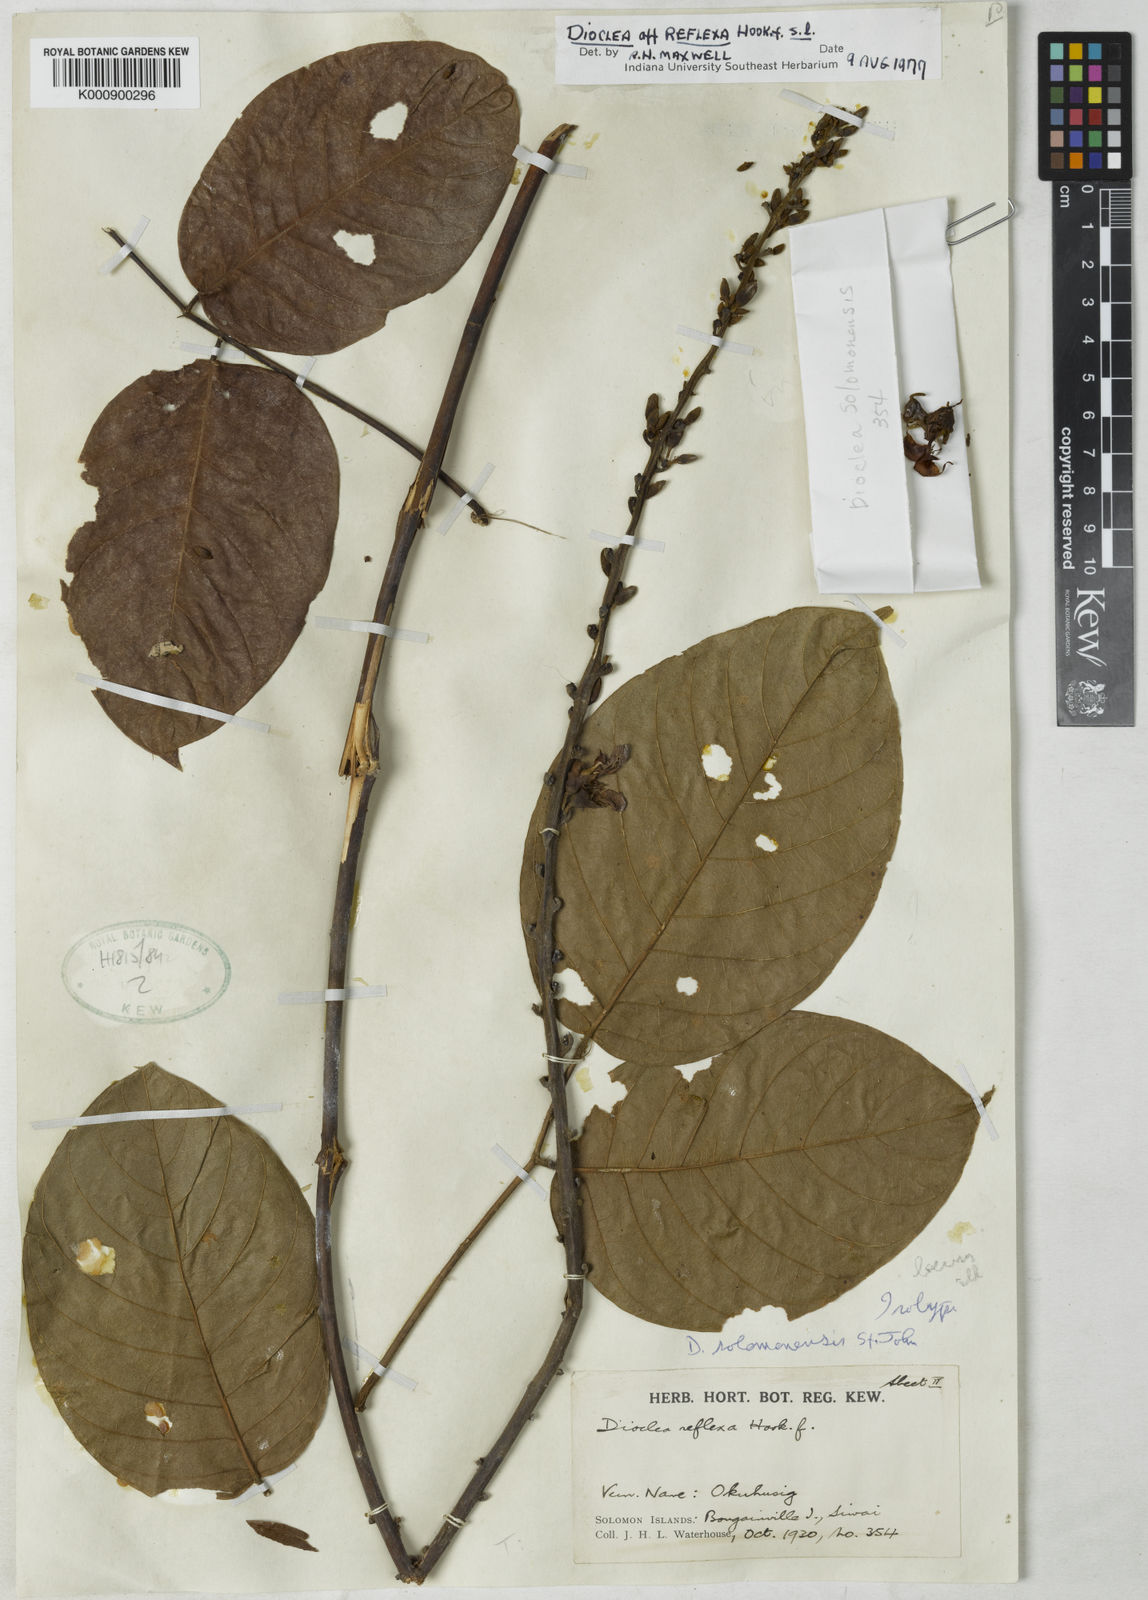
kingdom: Plantae
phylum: Tracheophyta
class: Magnoliopsida
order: Fabales
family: Fabaceae
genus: Dioclea
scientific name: Dioclea
